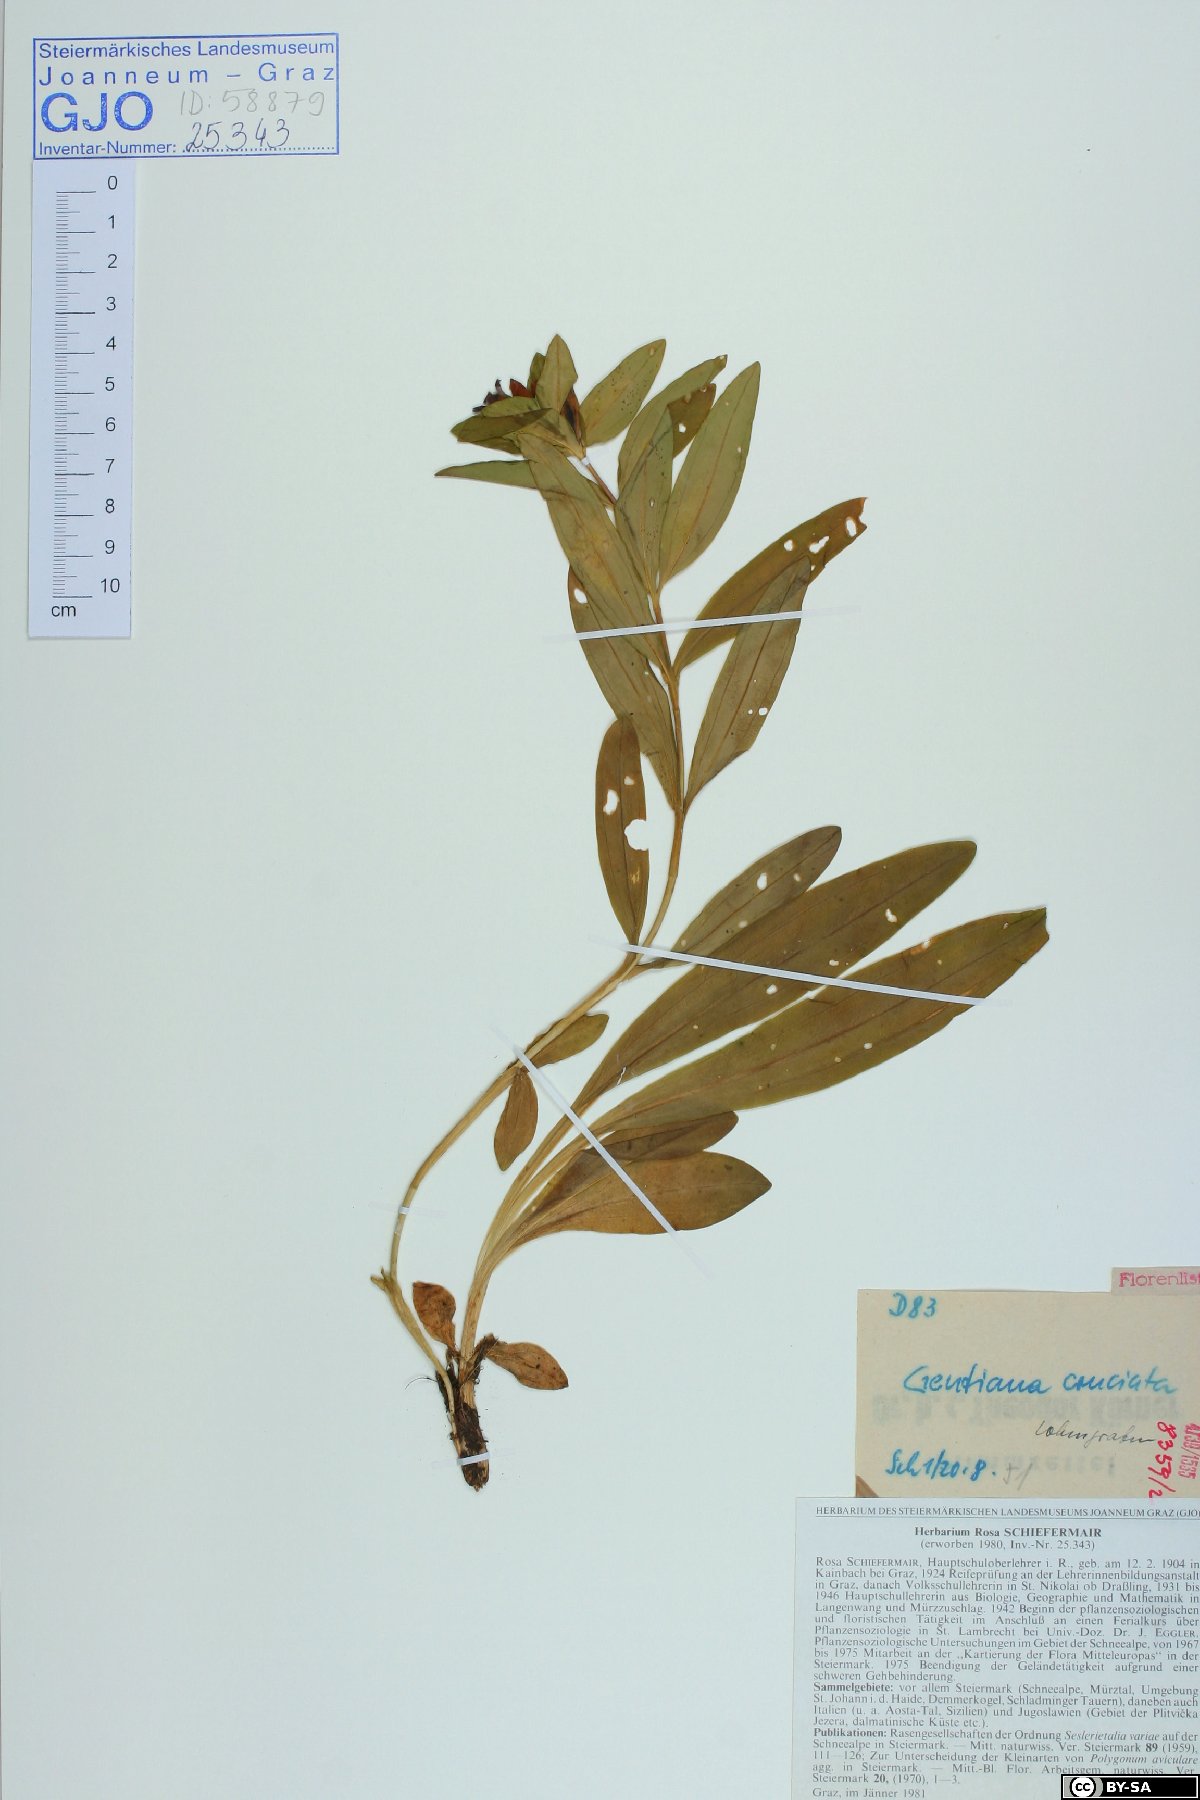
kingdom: Plantae
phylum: Tracheophyta
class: Magnoliopsida
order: Gentianales
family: Gentianaceae
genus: Gentiana
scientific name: Gentiana cruciata
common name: Cross gentian
